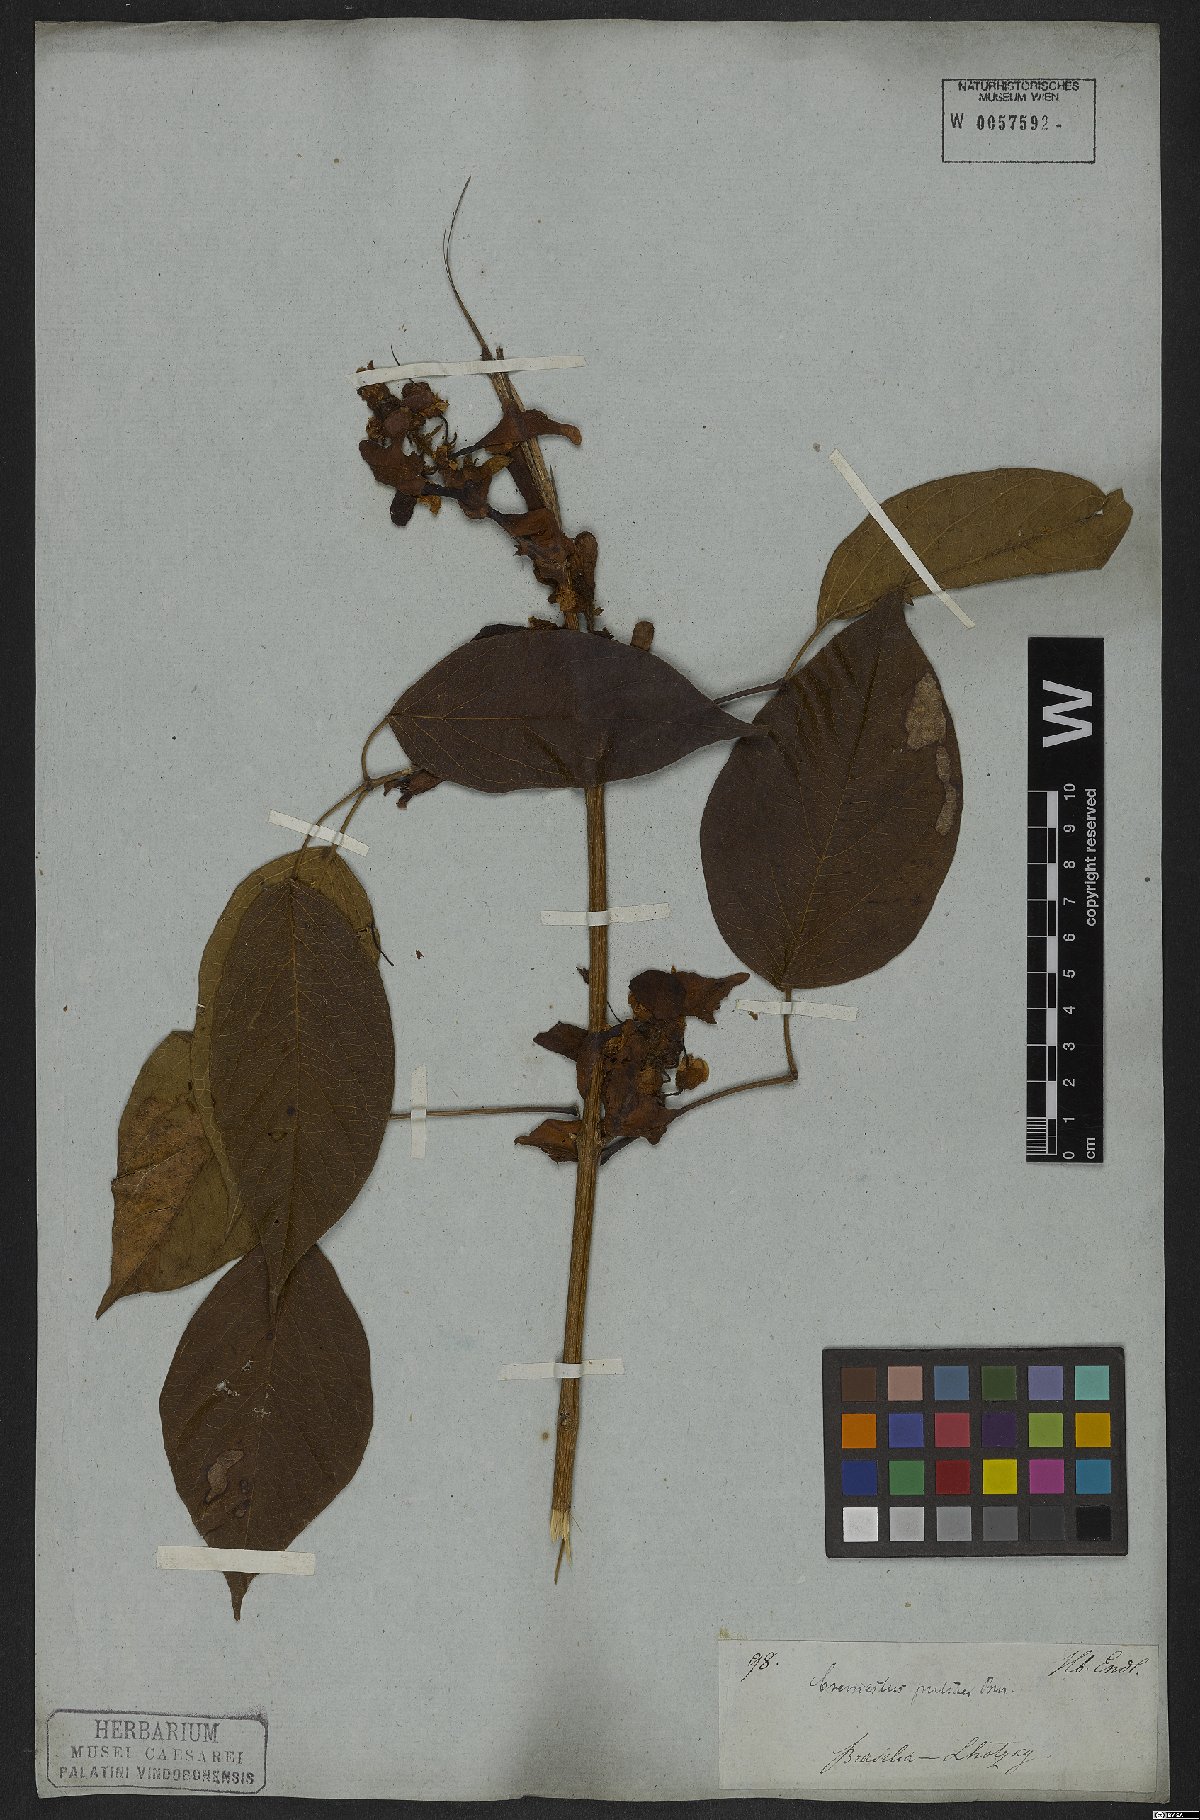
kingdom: Plantae
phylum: Tracheophyta
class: Magnoliopsida
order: Lamiales
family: Bignoniaceae
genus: Cuspidaria
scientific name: Cuspidaria pulchra
